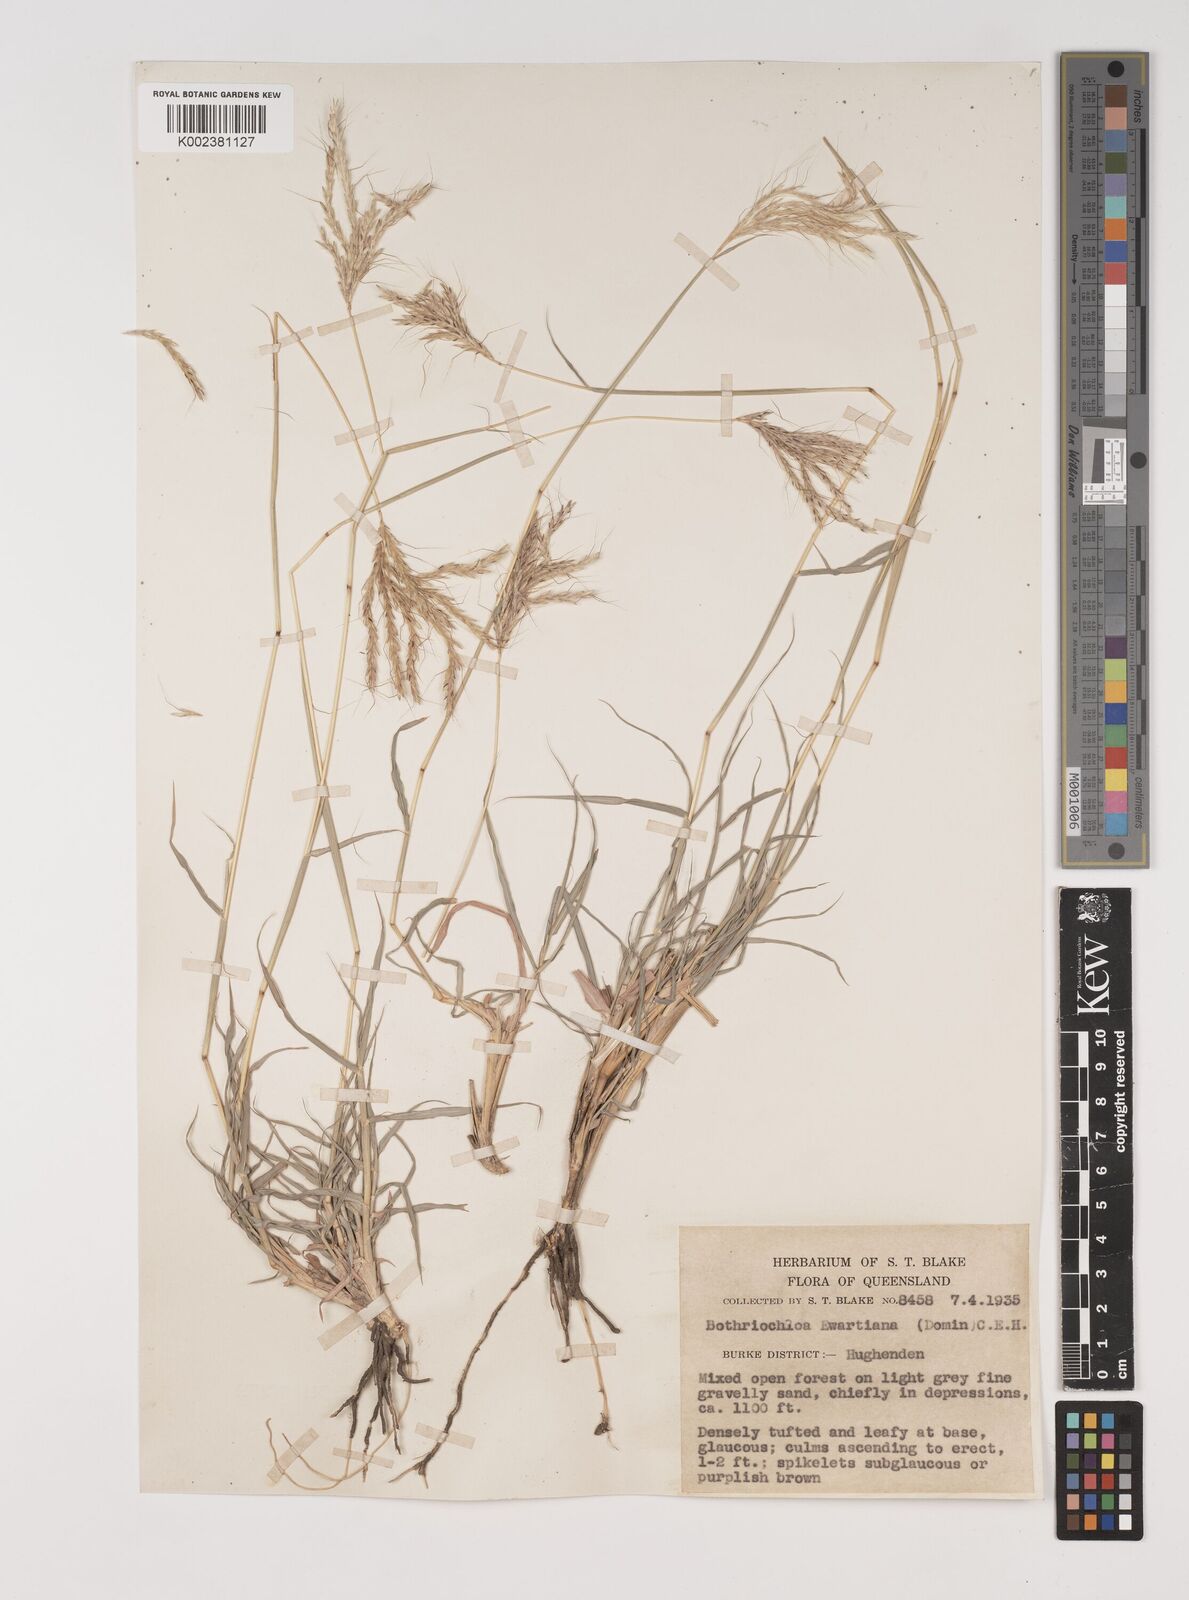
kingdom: Plantae
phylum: Tracheophyta
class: Liliopsida
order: Poales
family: Poaceae
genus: Bothriochloa
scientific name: Bothriochloa ewartiana
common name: Desert-bluegrass
